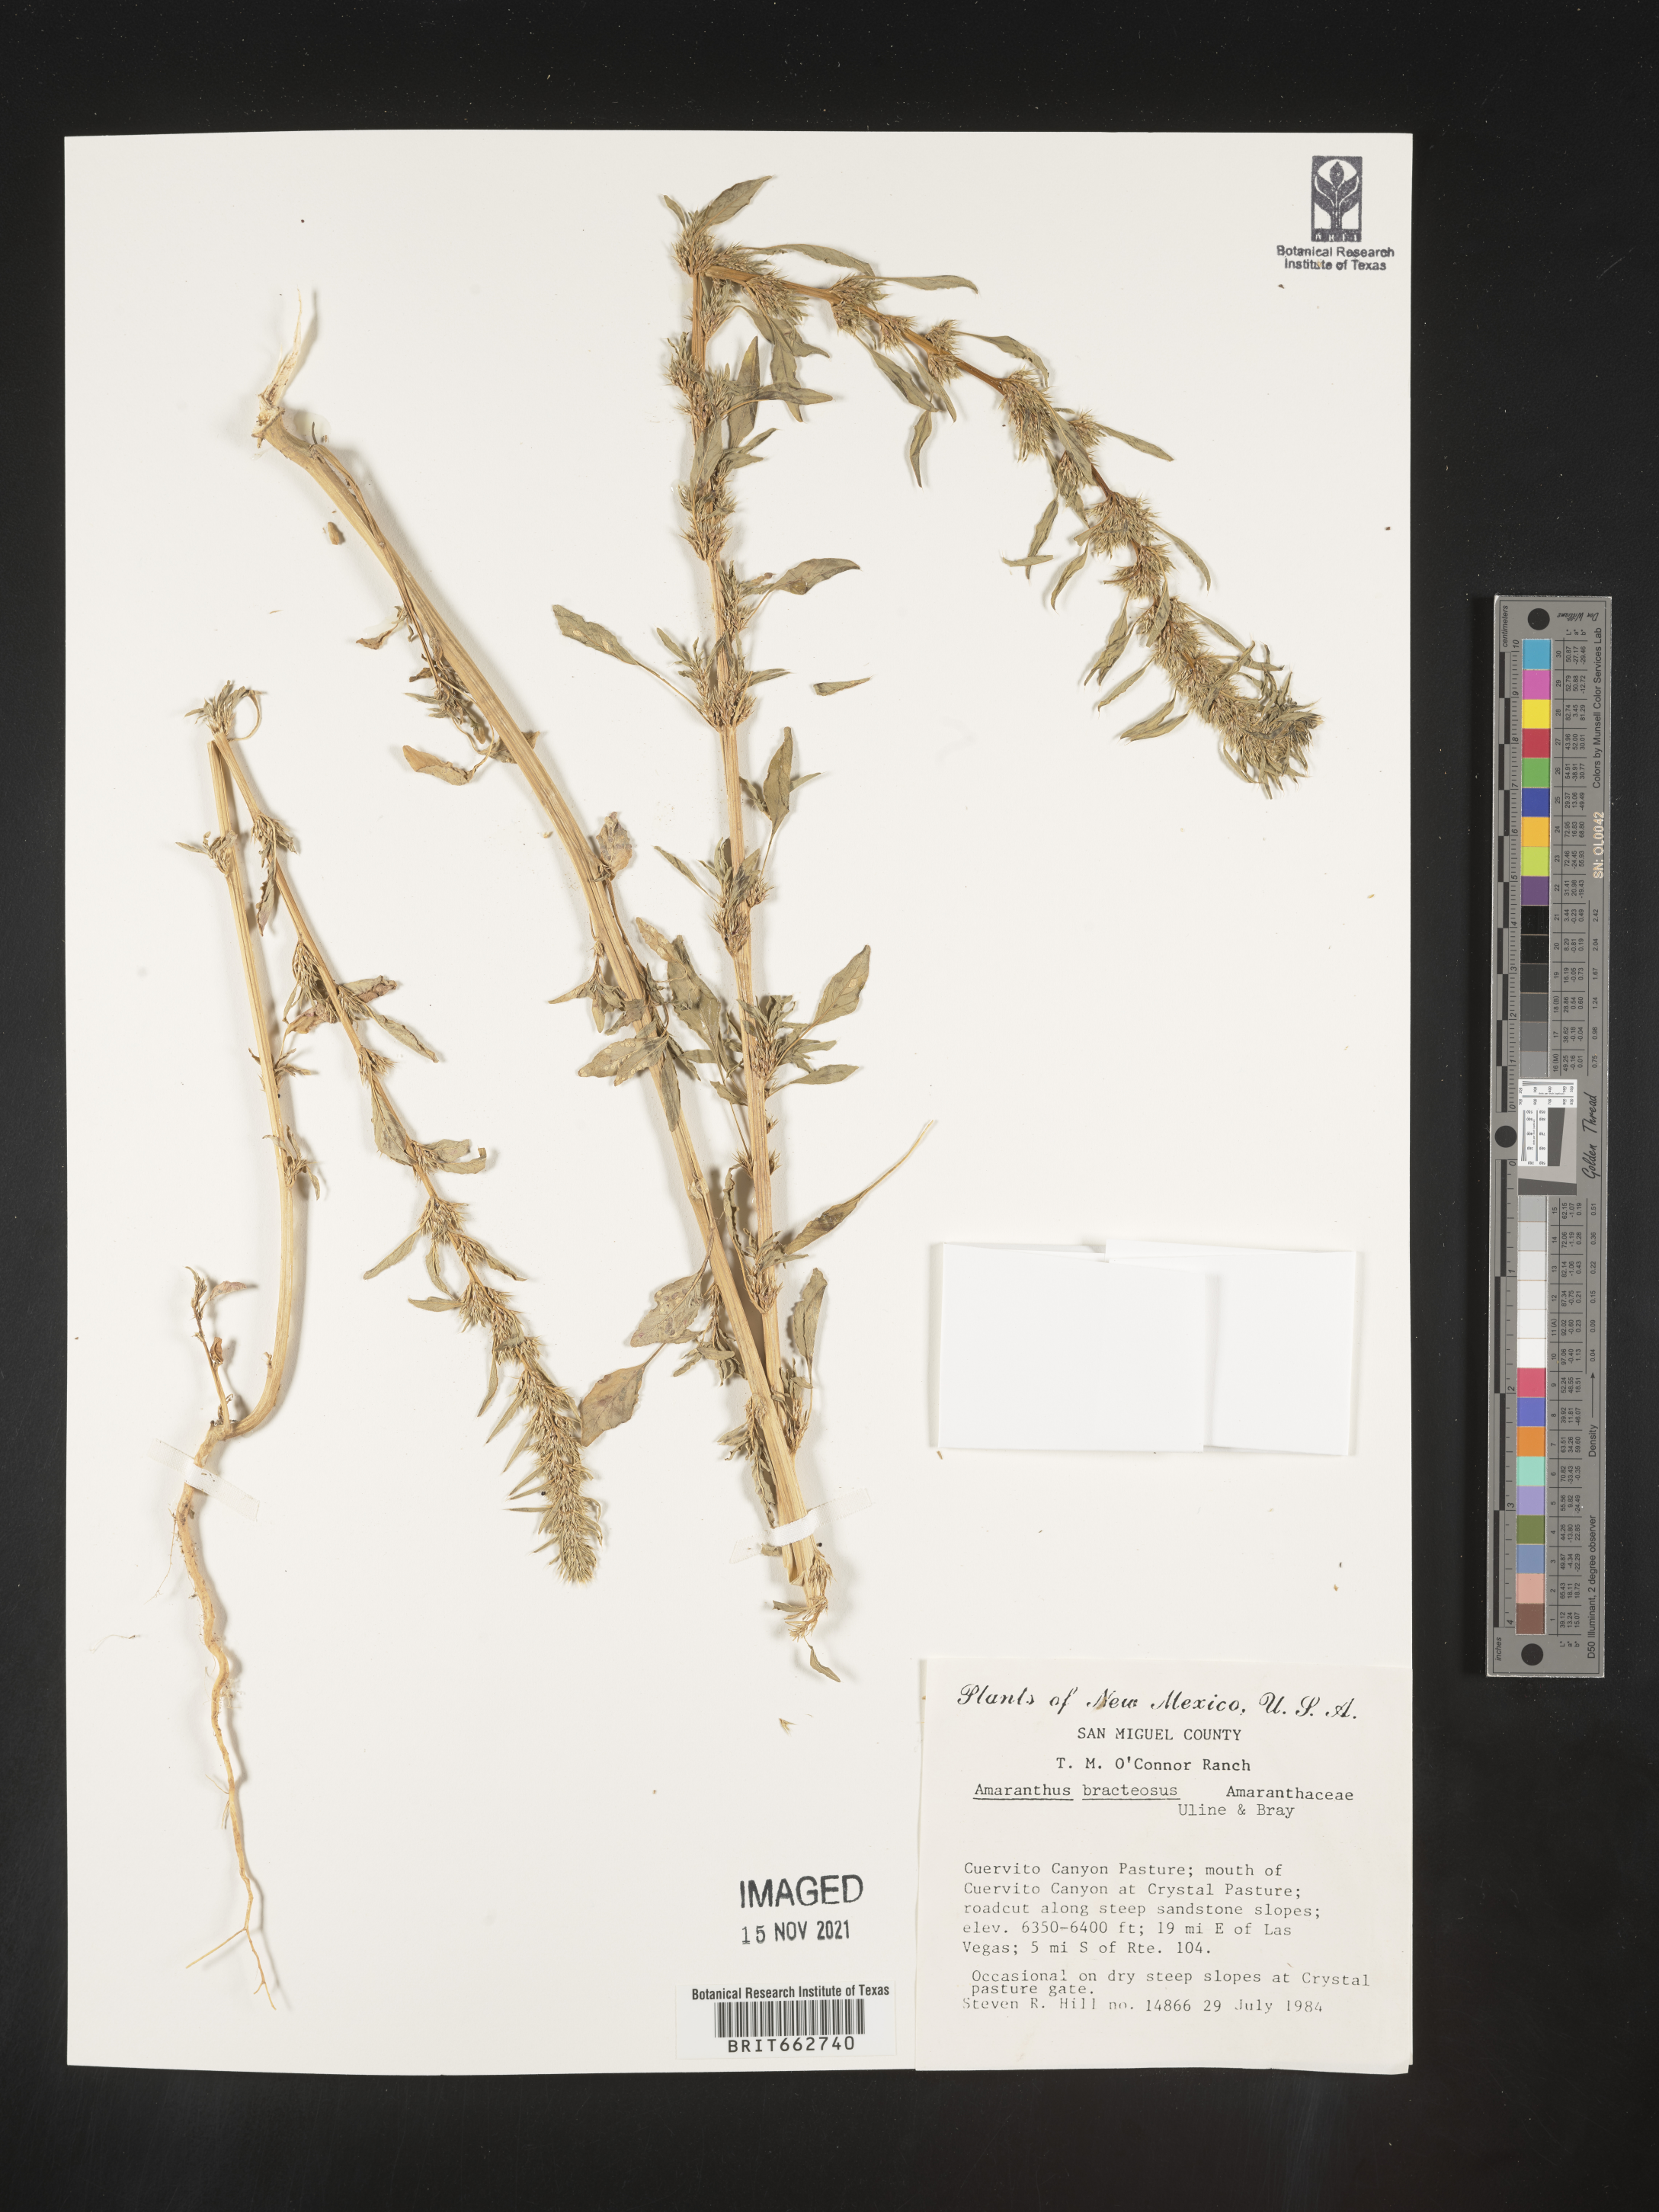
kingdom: Plantae
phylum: Tracheophyta
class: Magnoliopsida
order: Caryophyllales
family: Amaranthaceae
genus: Amaranthus
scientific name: Amaranthus powellii
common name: Powell's amaranth
